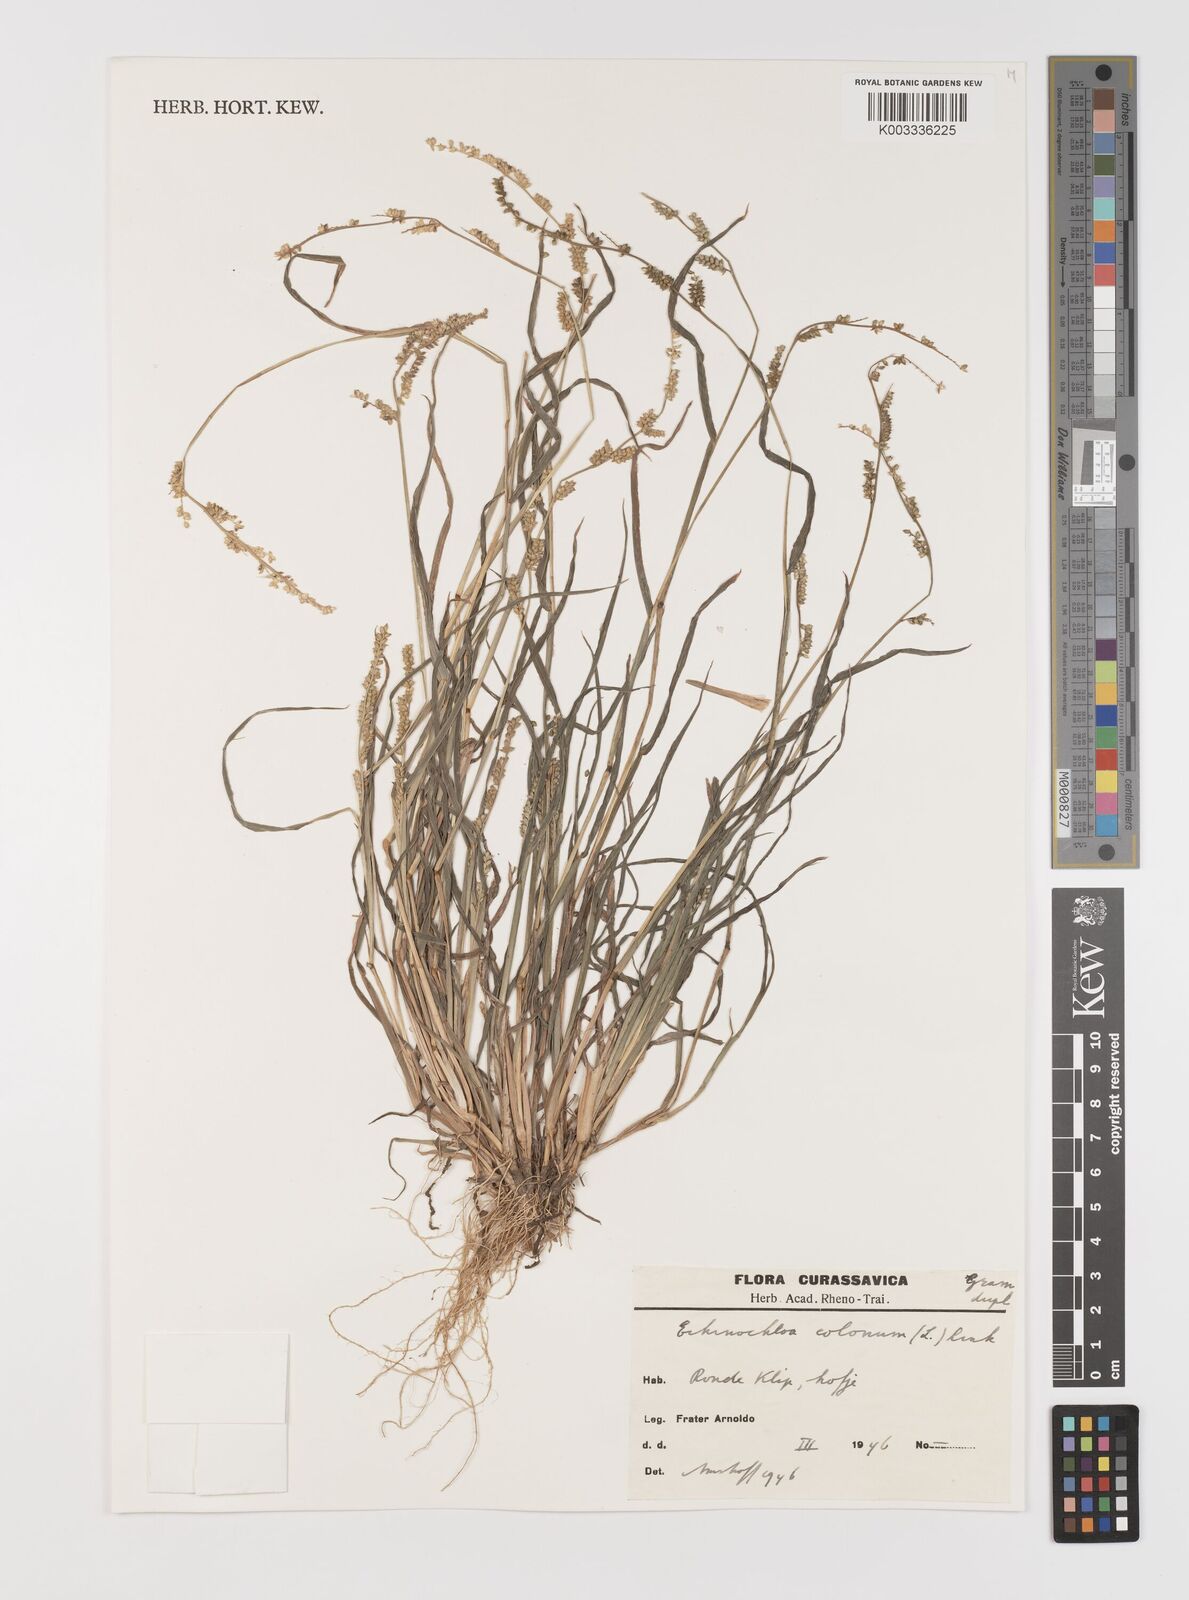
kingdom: Plantae
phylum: Tracheophyta
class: Liliopsida
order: Poales
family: Poaceae
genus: Echinochloa
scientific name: Echinochloa colonum
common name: Jungle rice
